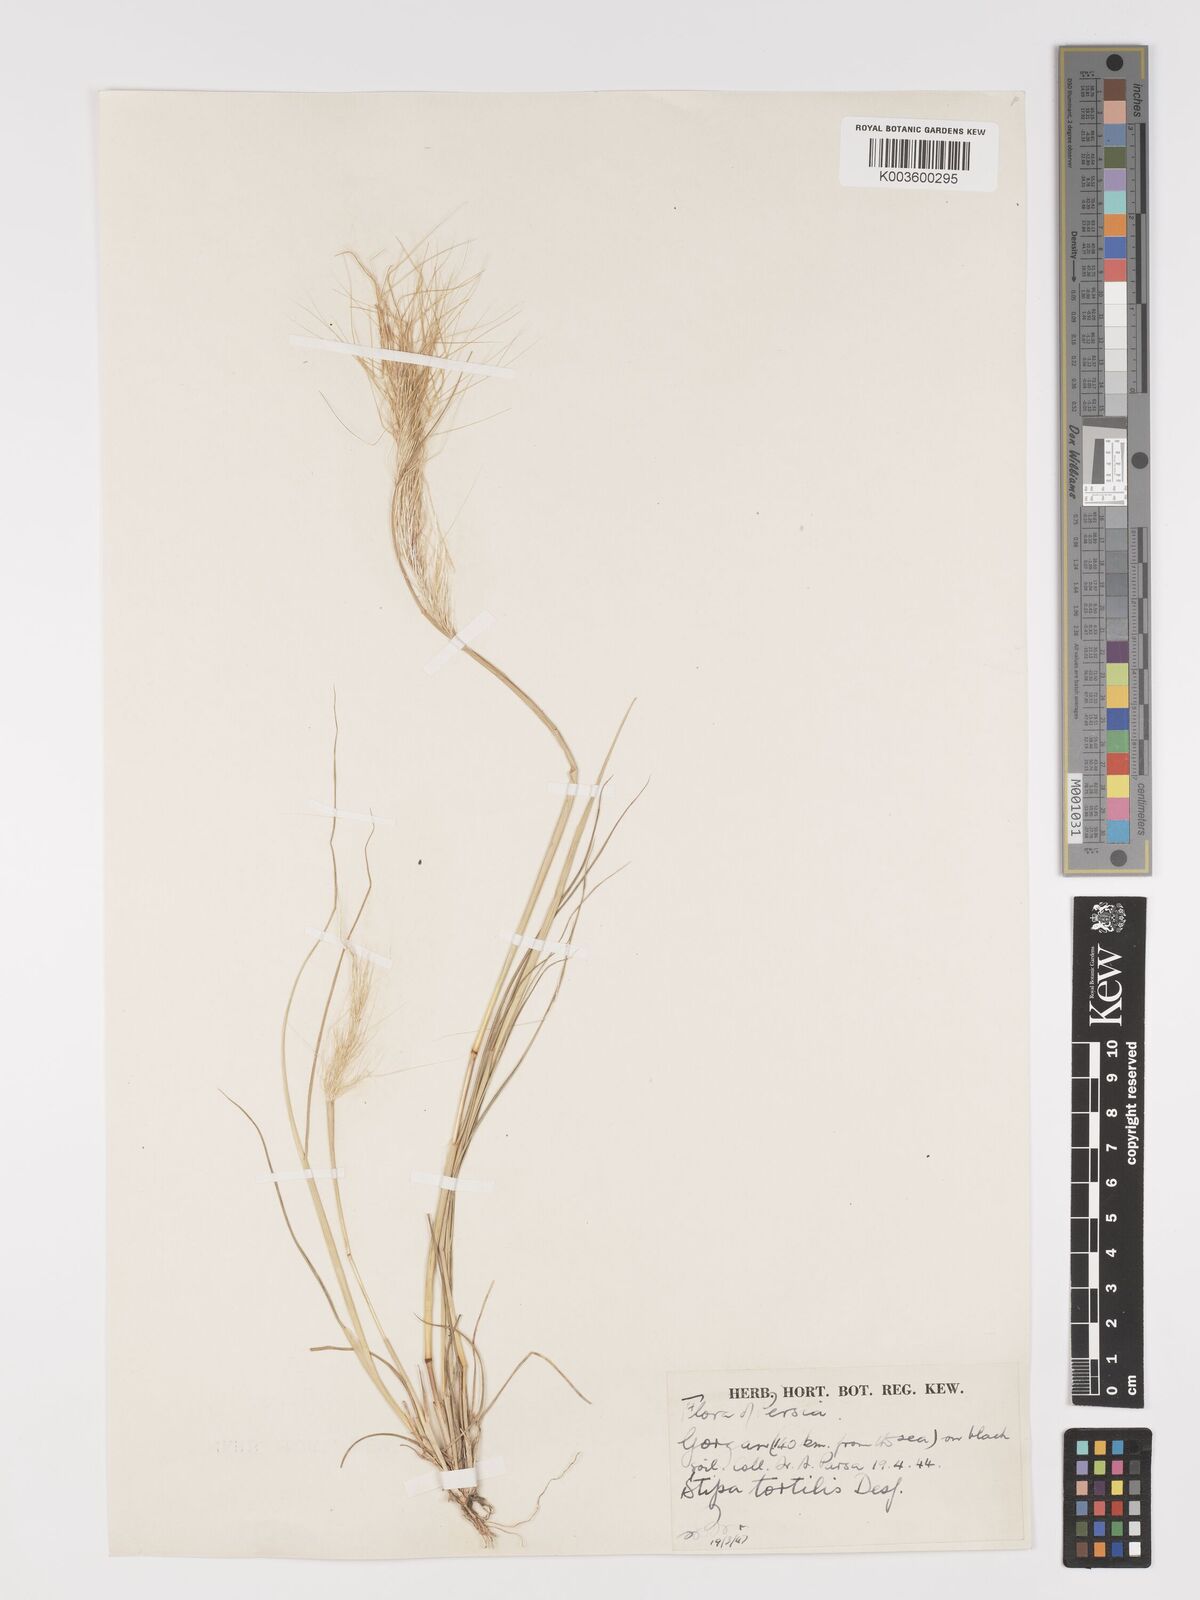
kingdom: Plantae
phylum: Tracheophyta
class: Liliopsida
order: Poales
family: Poaceae
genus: Stipellula
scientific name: Stipellula capensis
